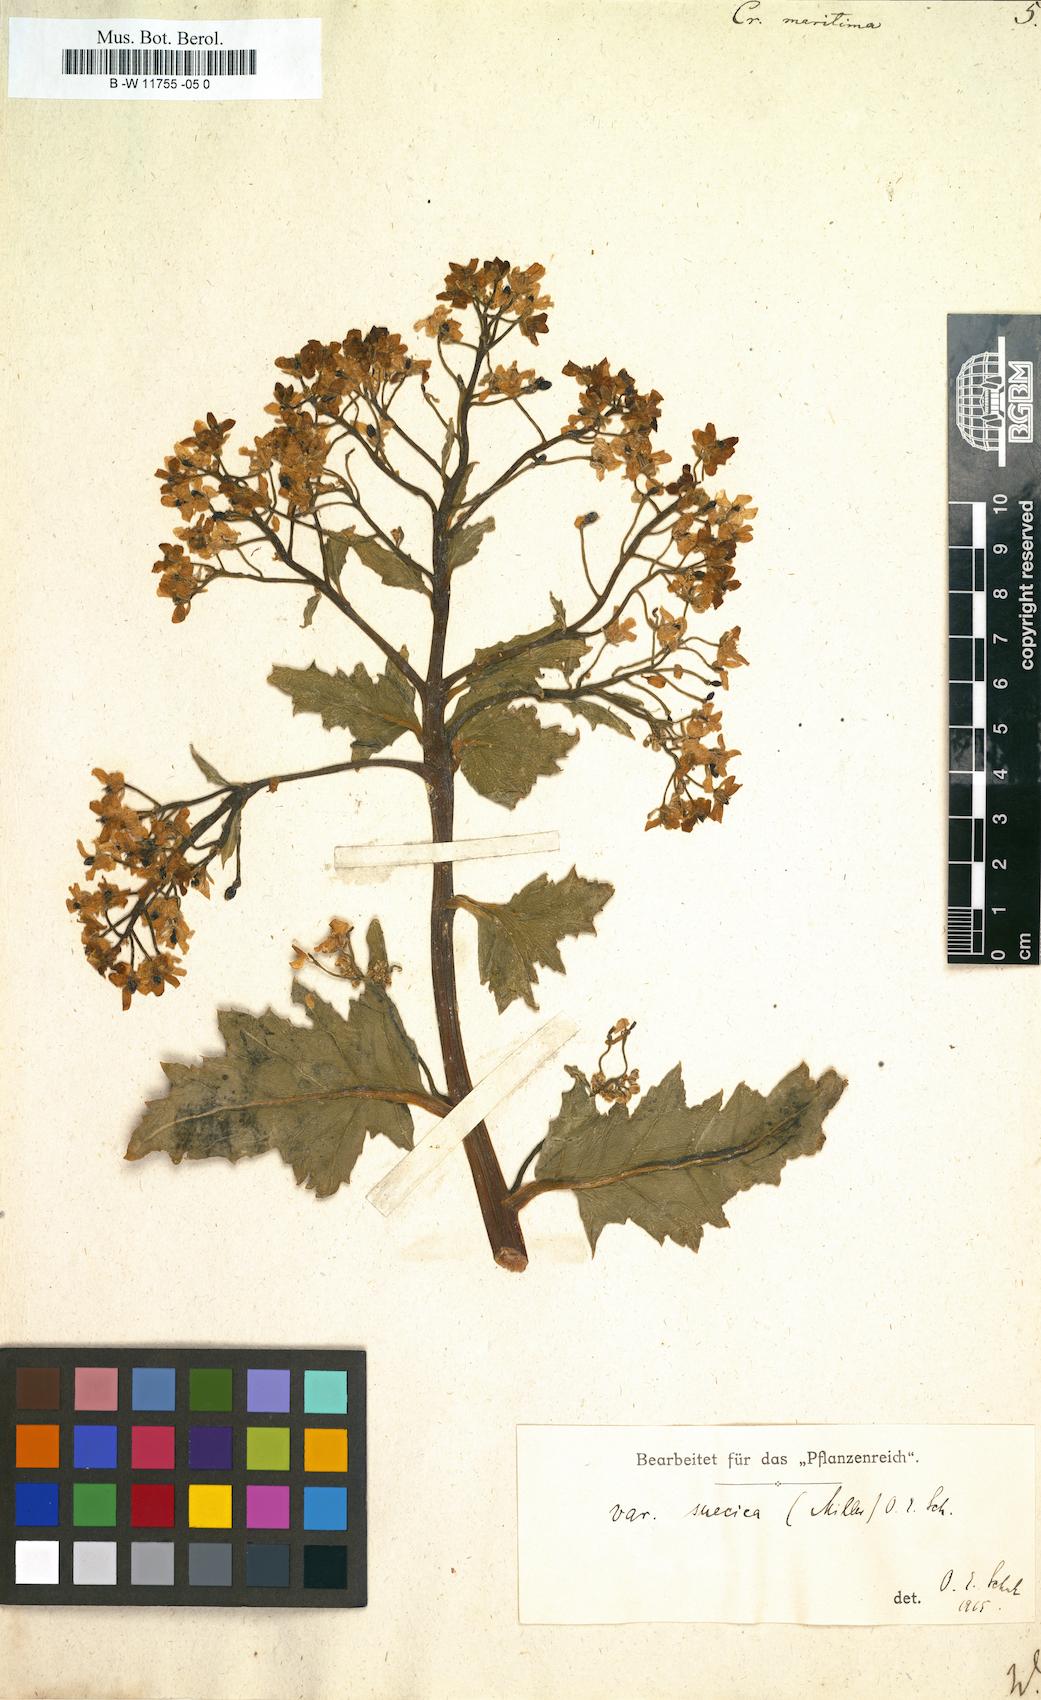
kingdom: Plantae
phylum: Tracheophyta
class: Magnoliopsida
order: Brassicales
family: Brassicaceae
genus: Crambe
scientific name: Crambe maritima
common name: Sea-kale
